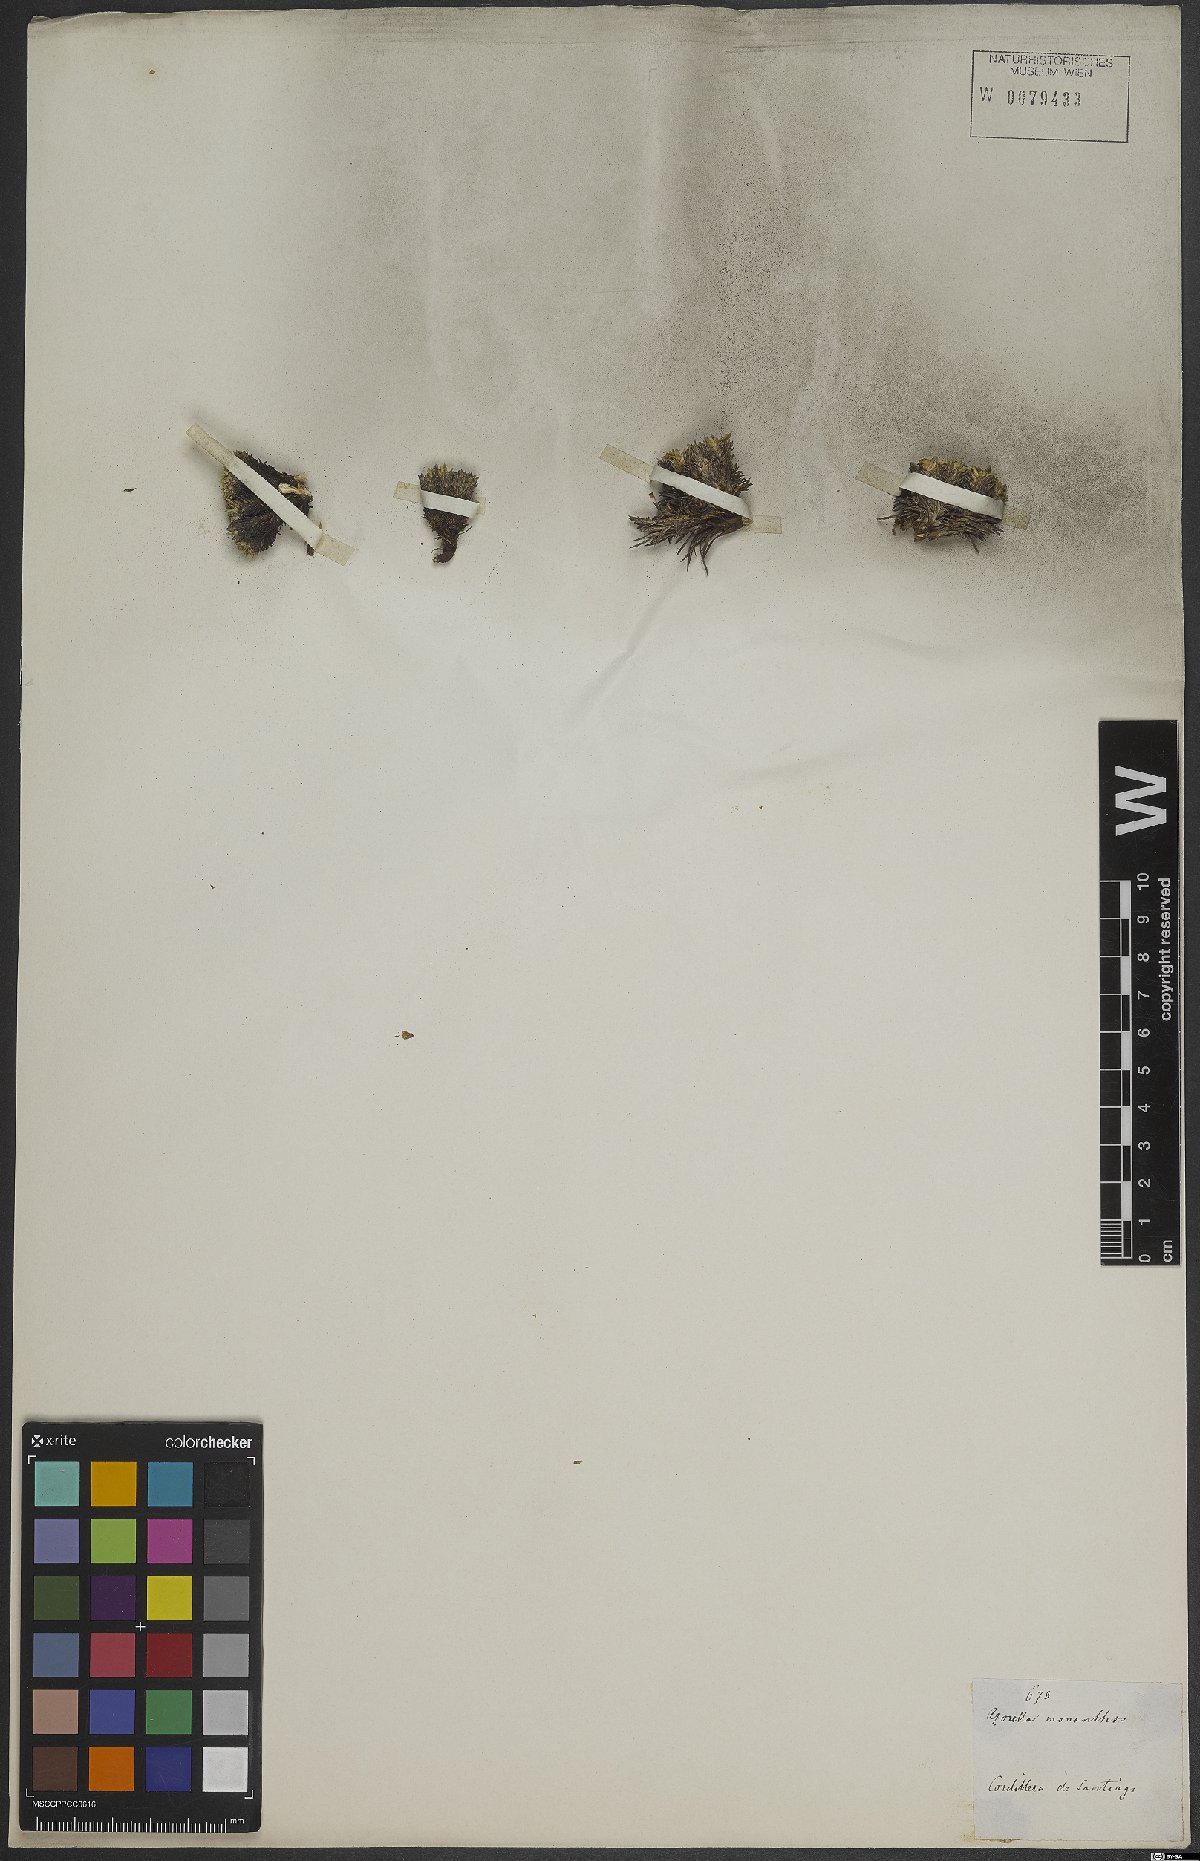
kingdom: Plantae
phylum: Tracheophyta
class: Magnoliopsida
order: Apiales
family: Apiaceae
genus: Azorella
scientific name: Azorella monantha
